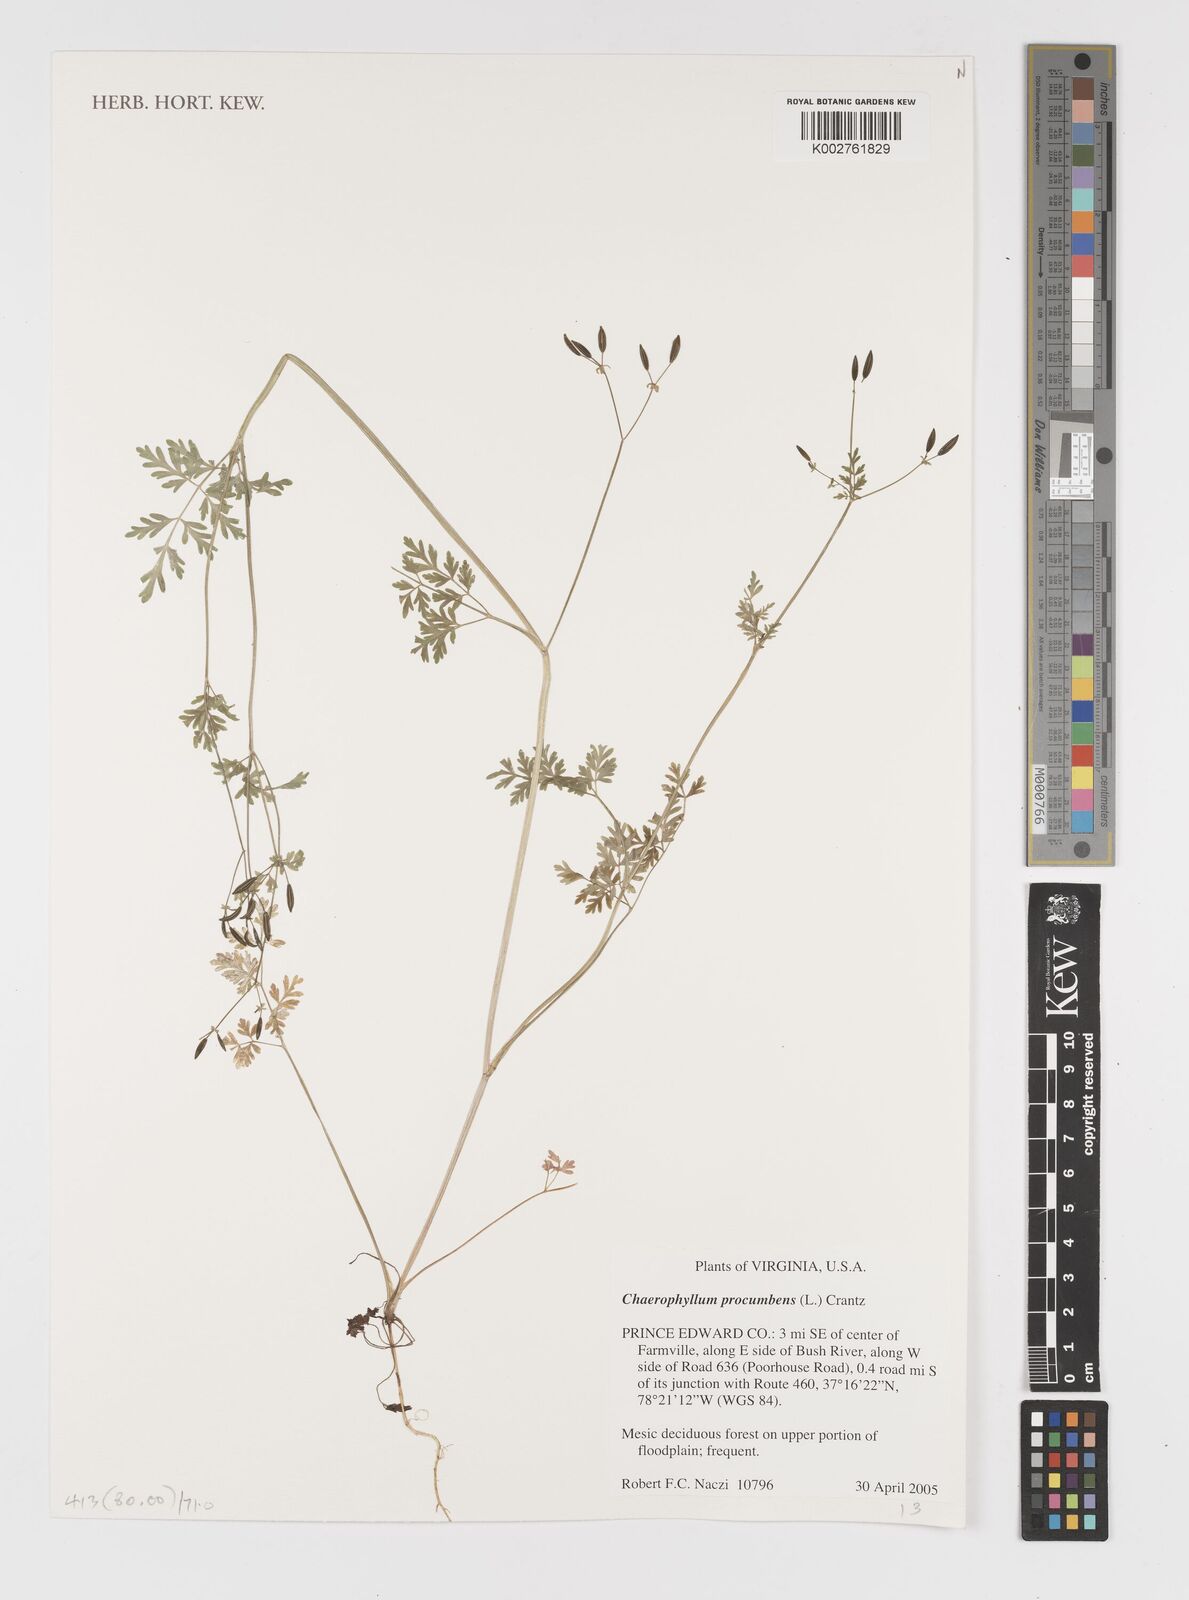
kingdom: Plantae
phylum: Tracheophyta
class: Magnoliopsida
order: Apiales
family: Apiaceae
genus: Chaerophyllum
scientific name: Chaerophyllum procumbens
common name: Spreading chervil
